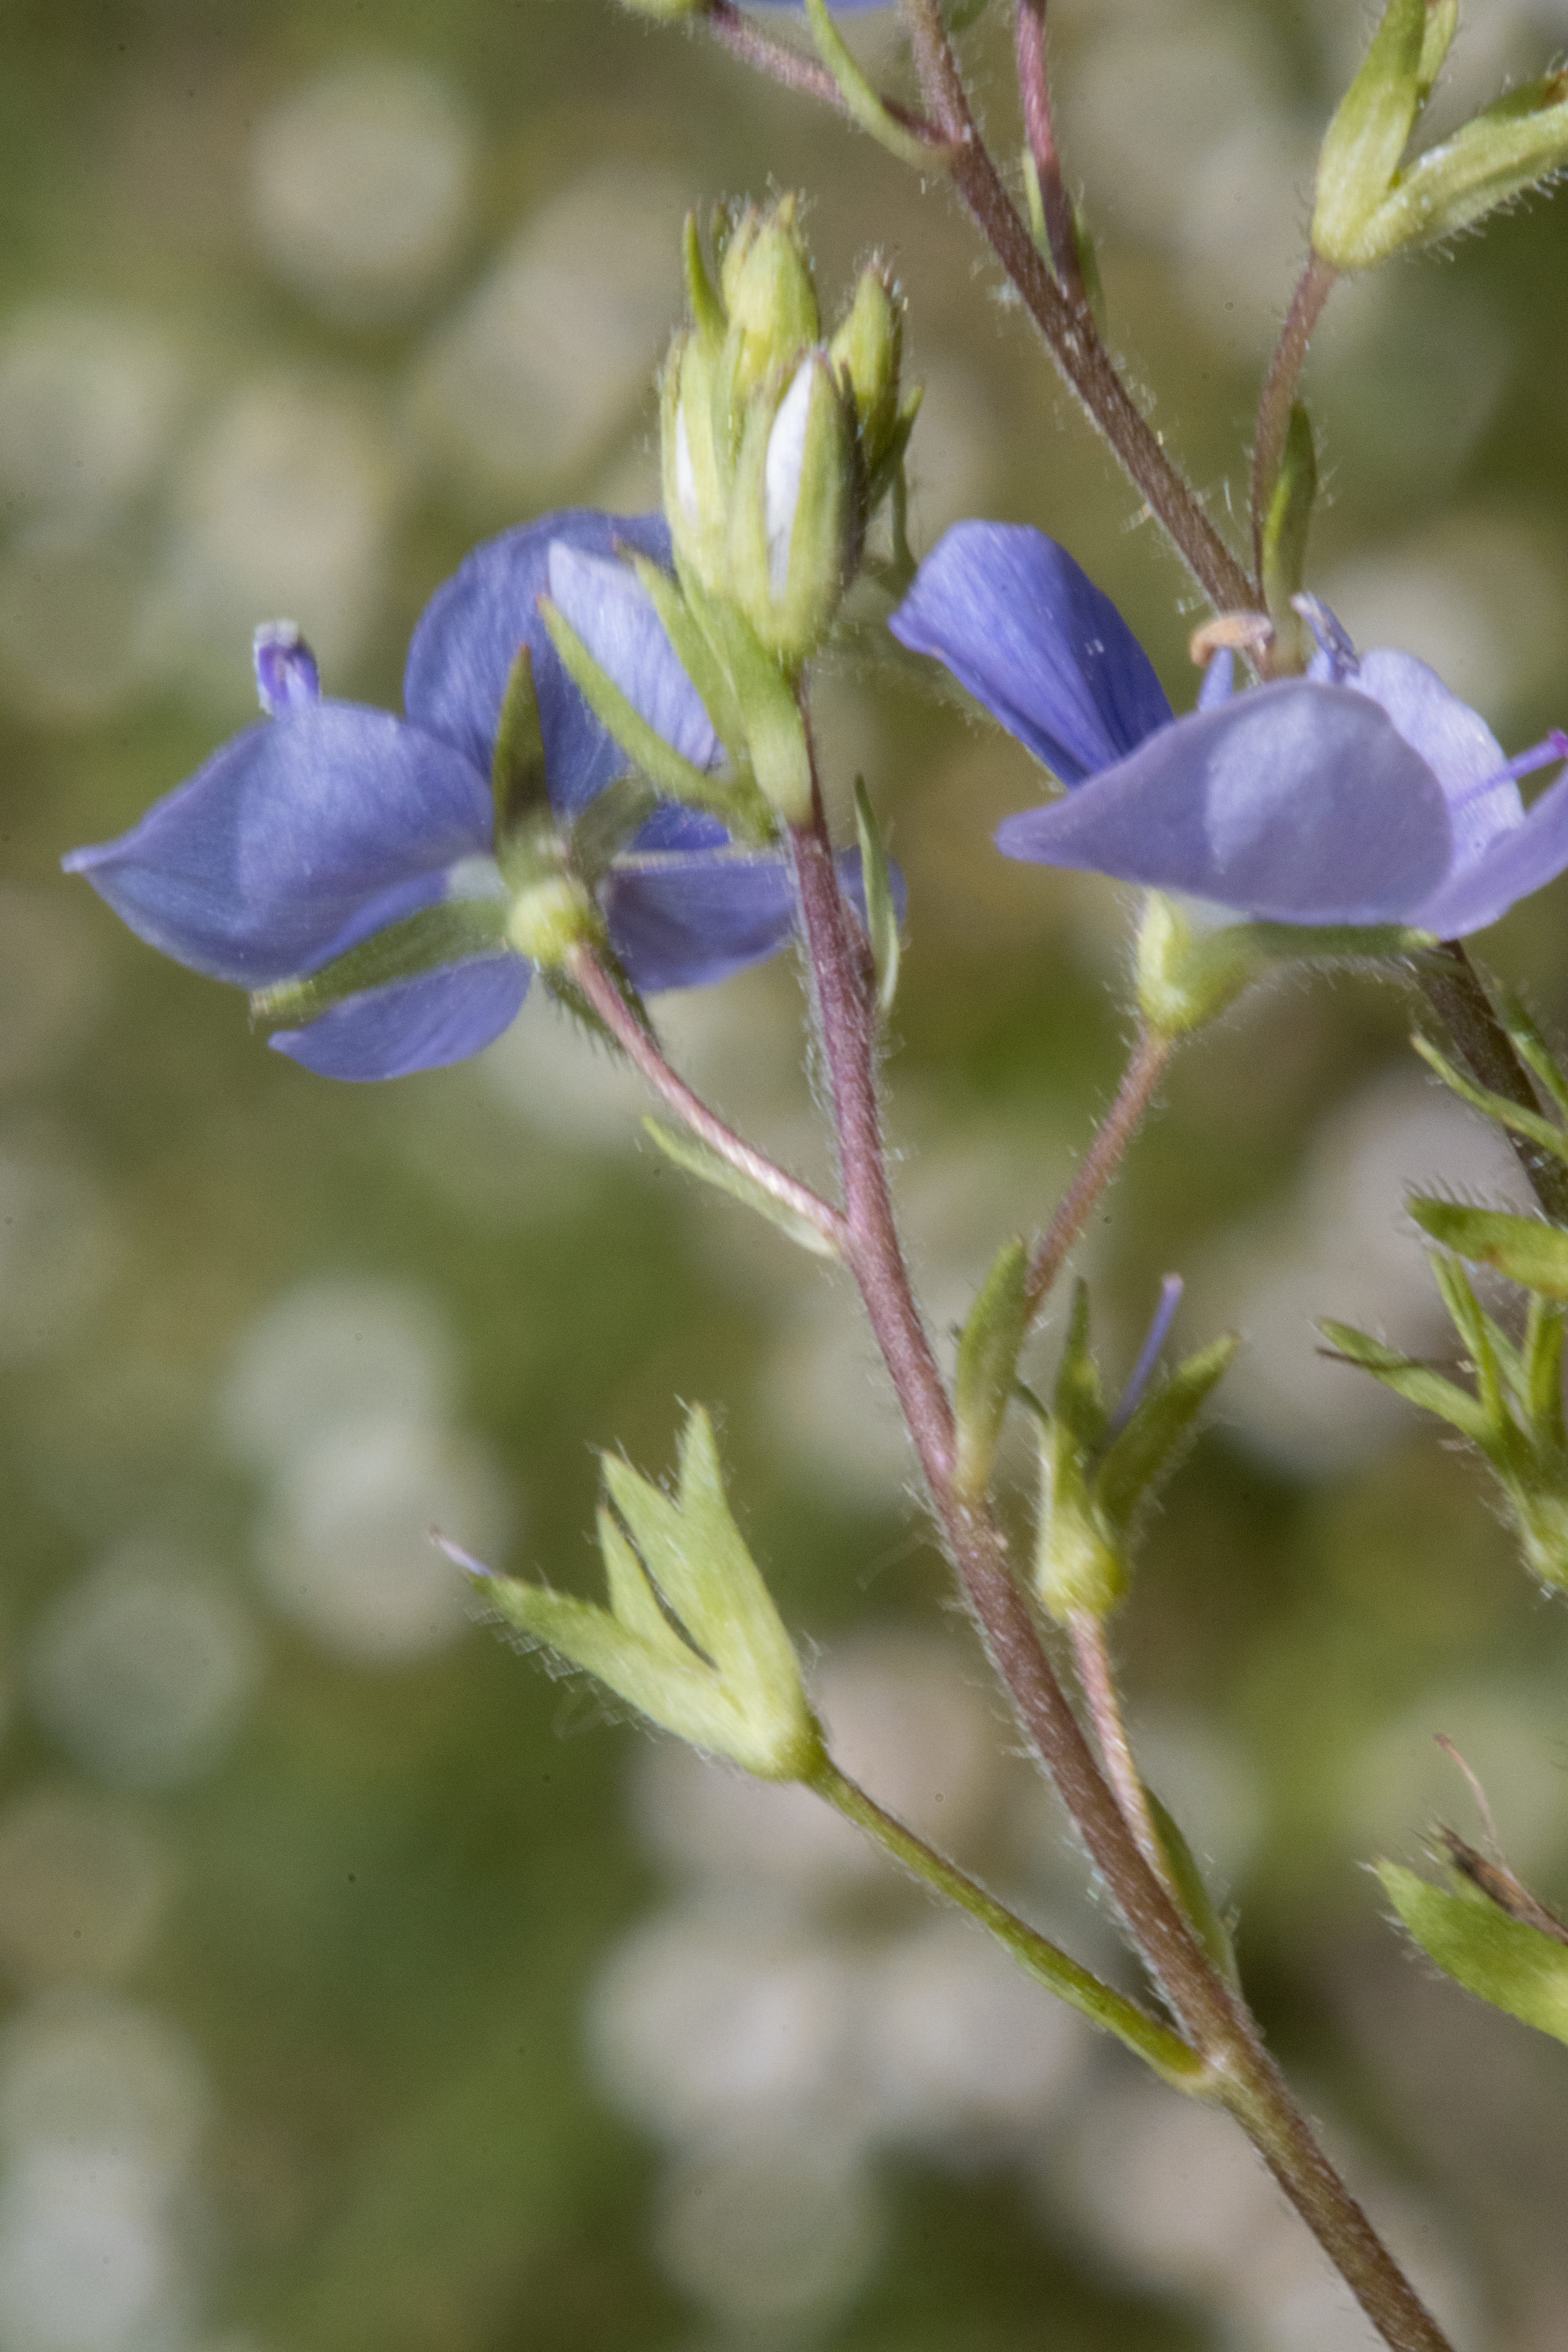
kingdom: Plantae
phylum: Tracheophyta
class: Magnoliopsida
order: Lamiales
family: Plantaginaceae
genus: Veronica
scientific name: Veronica chamaedrys
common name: Tveskægget ærenpris
